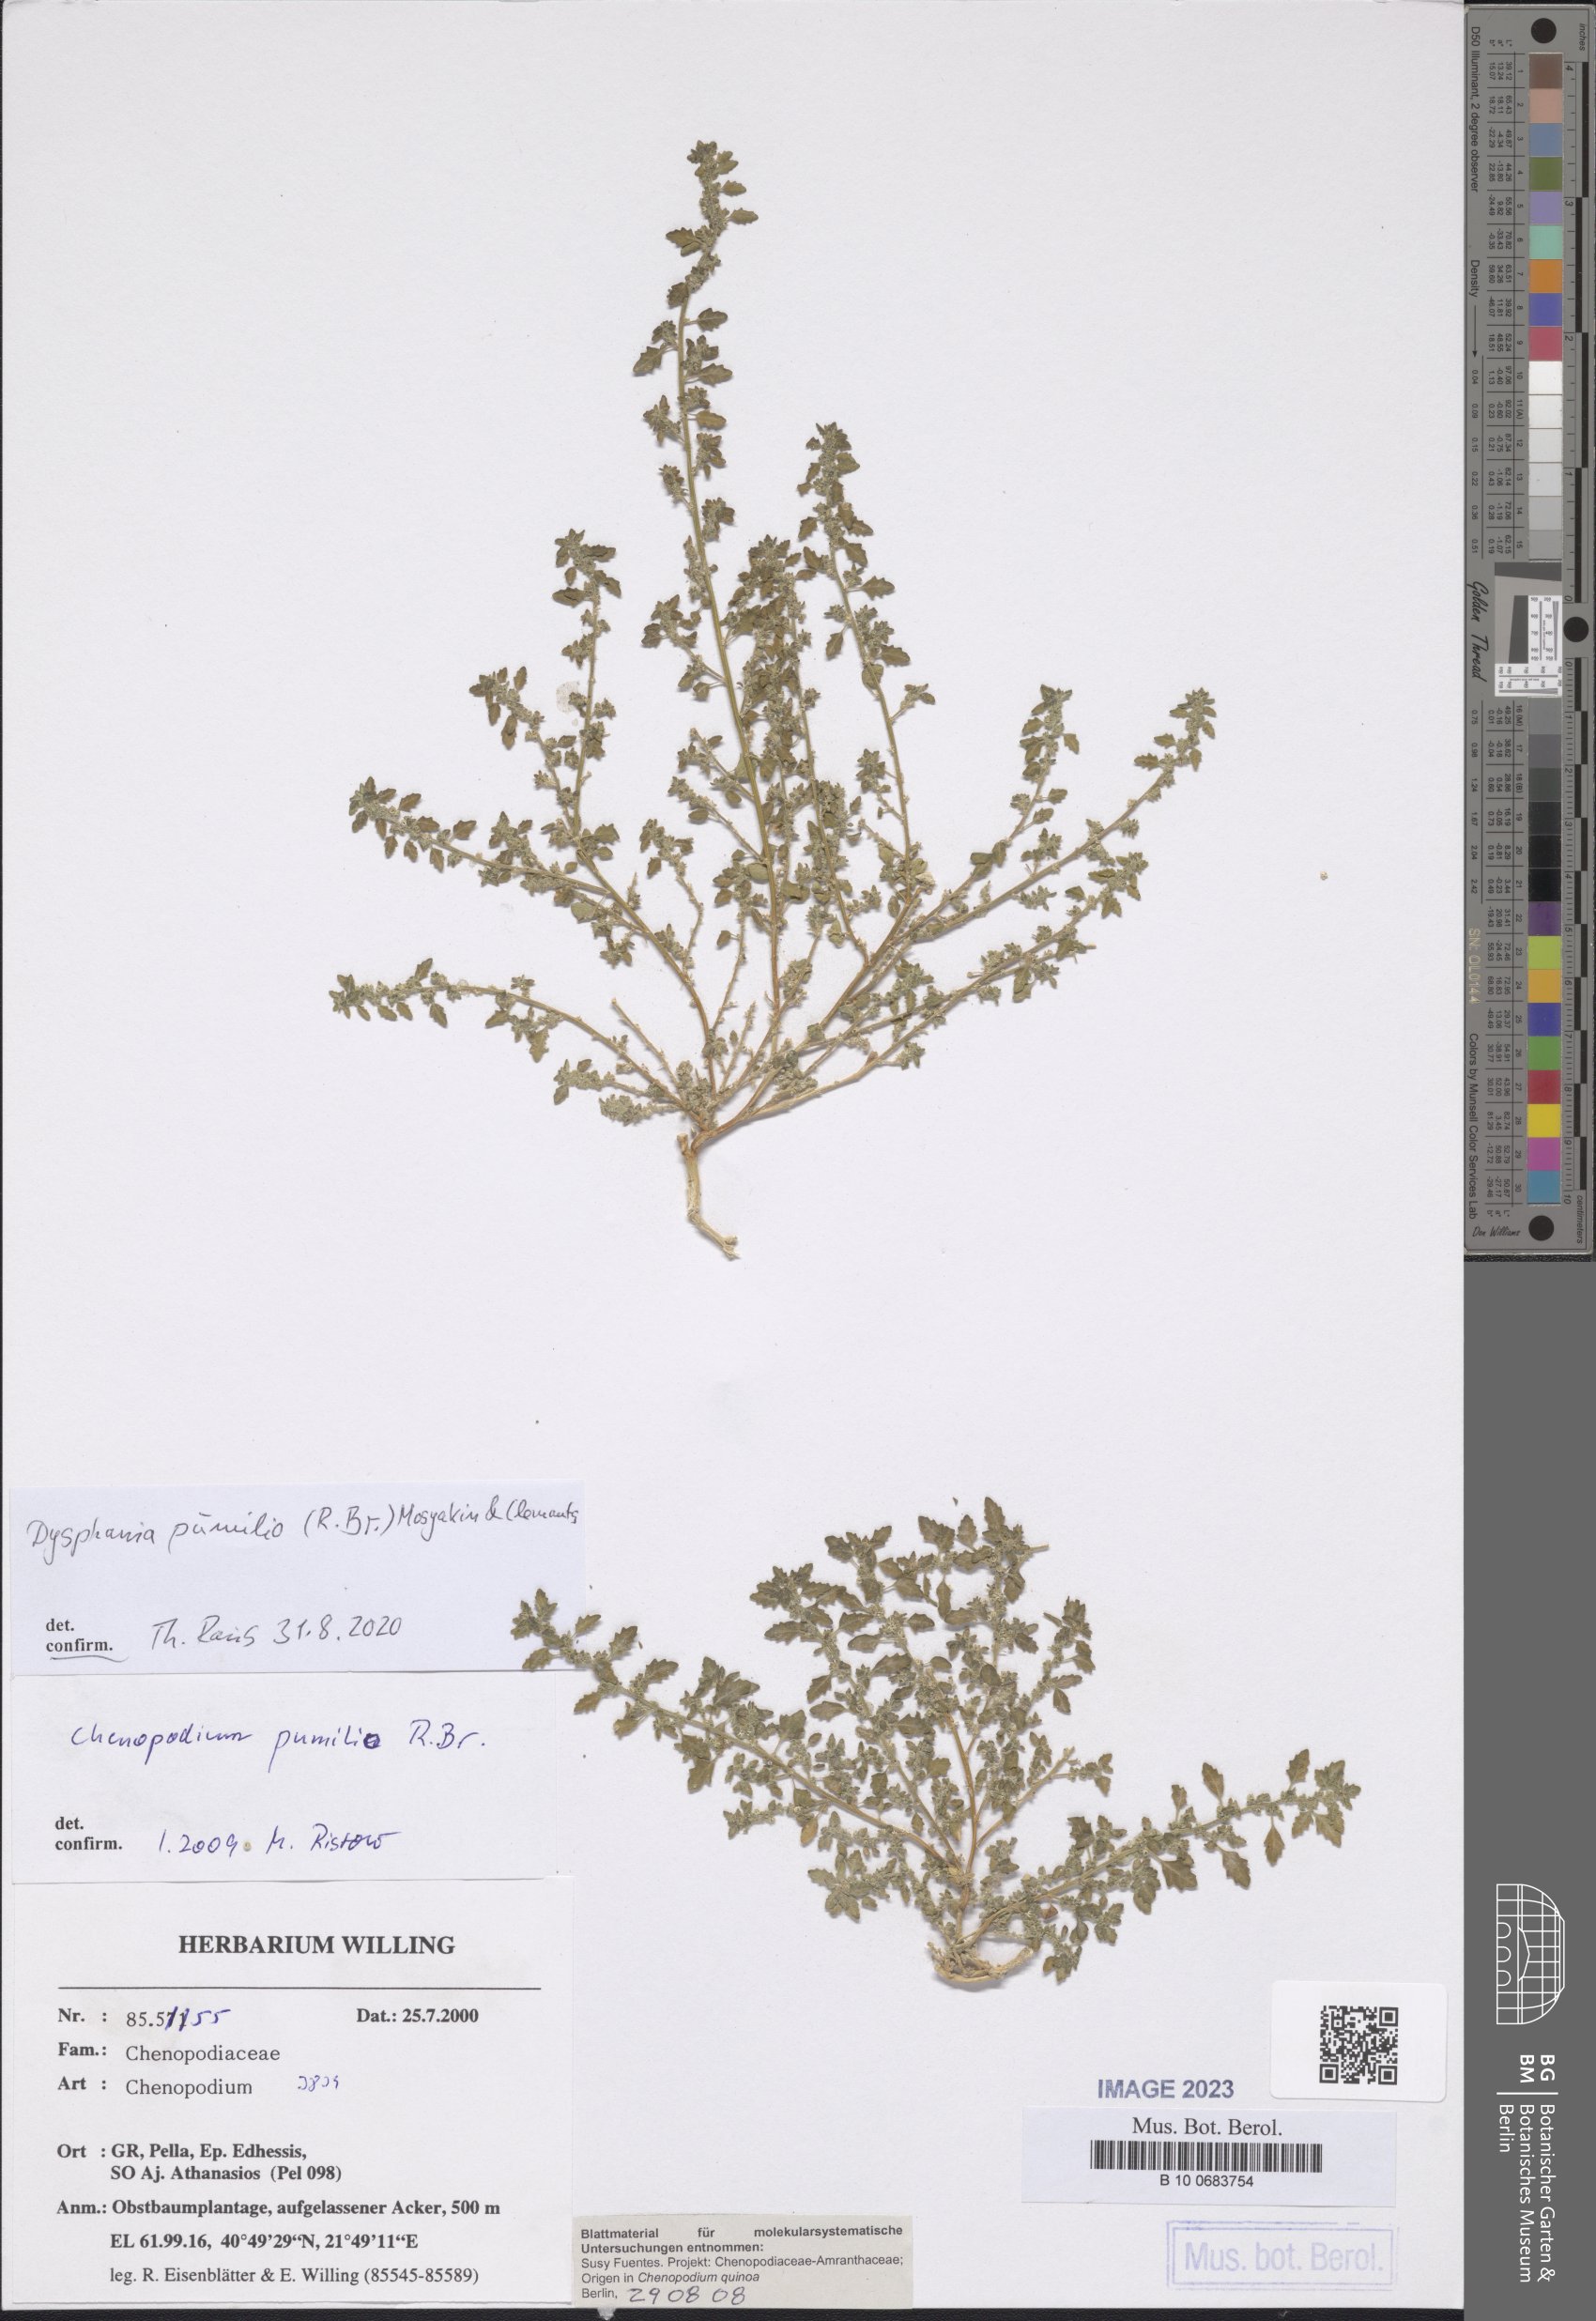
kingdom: Plantae
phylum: Tracheophyta
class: Magnoliopsida
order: Caryophyllales
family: Amaranthaceae
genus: Dysphania
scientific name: Dysphania pumilio
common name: Clammy goosefoot
